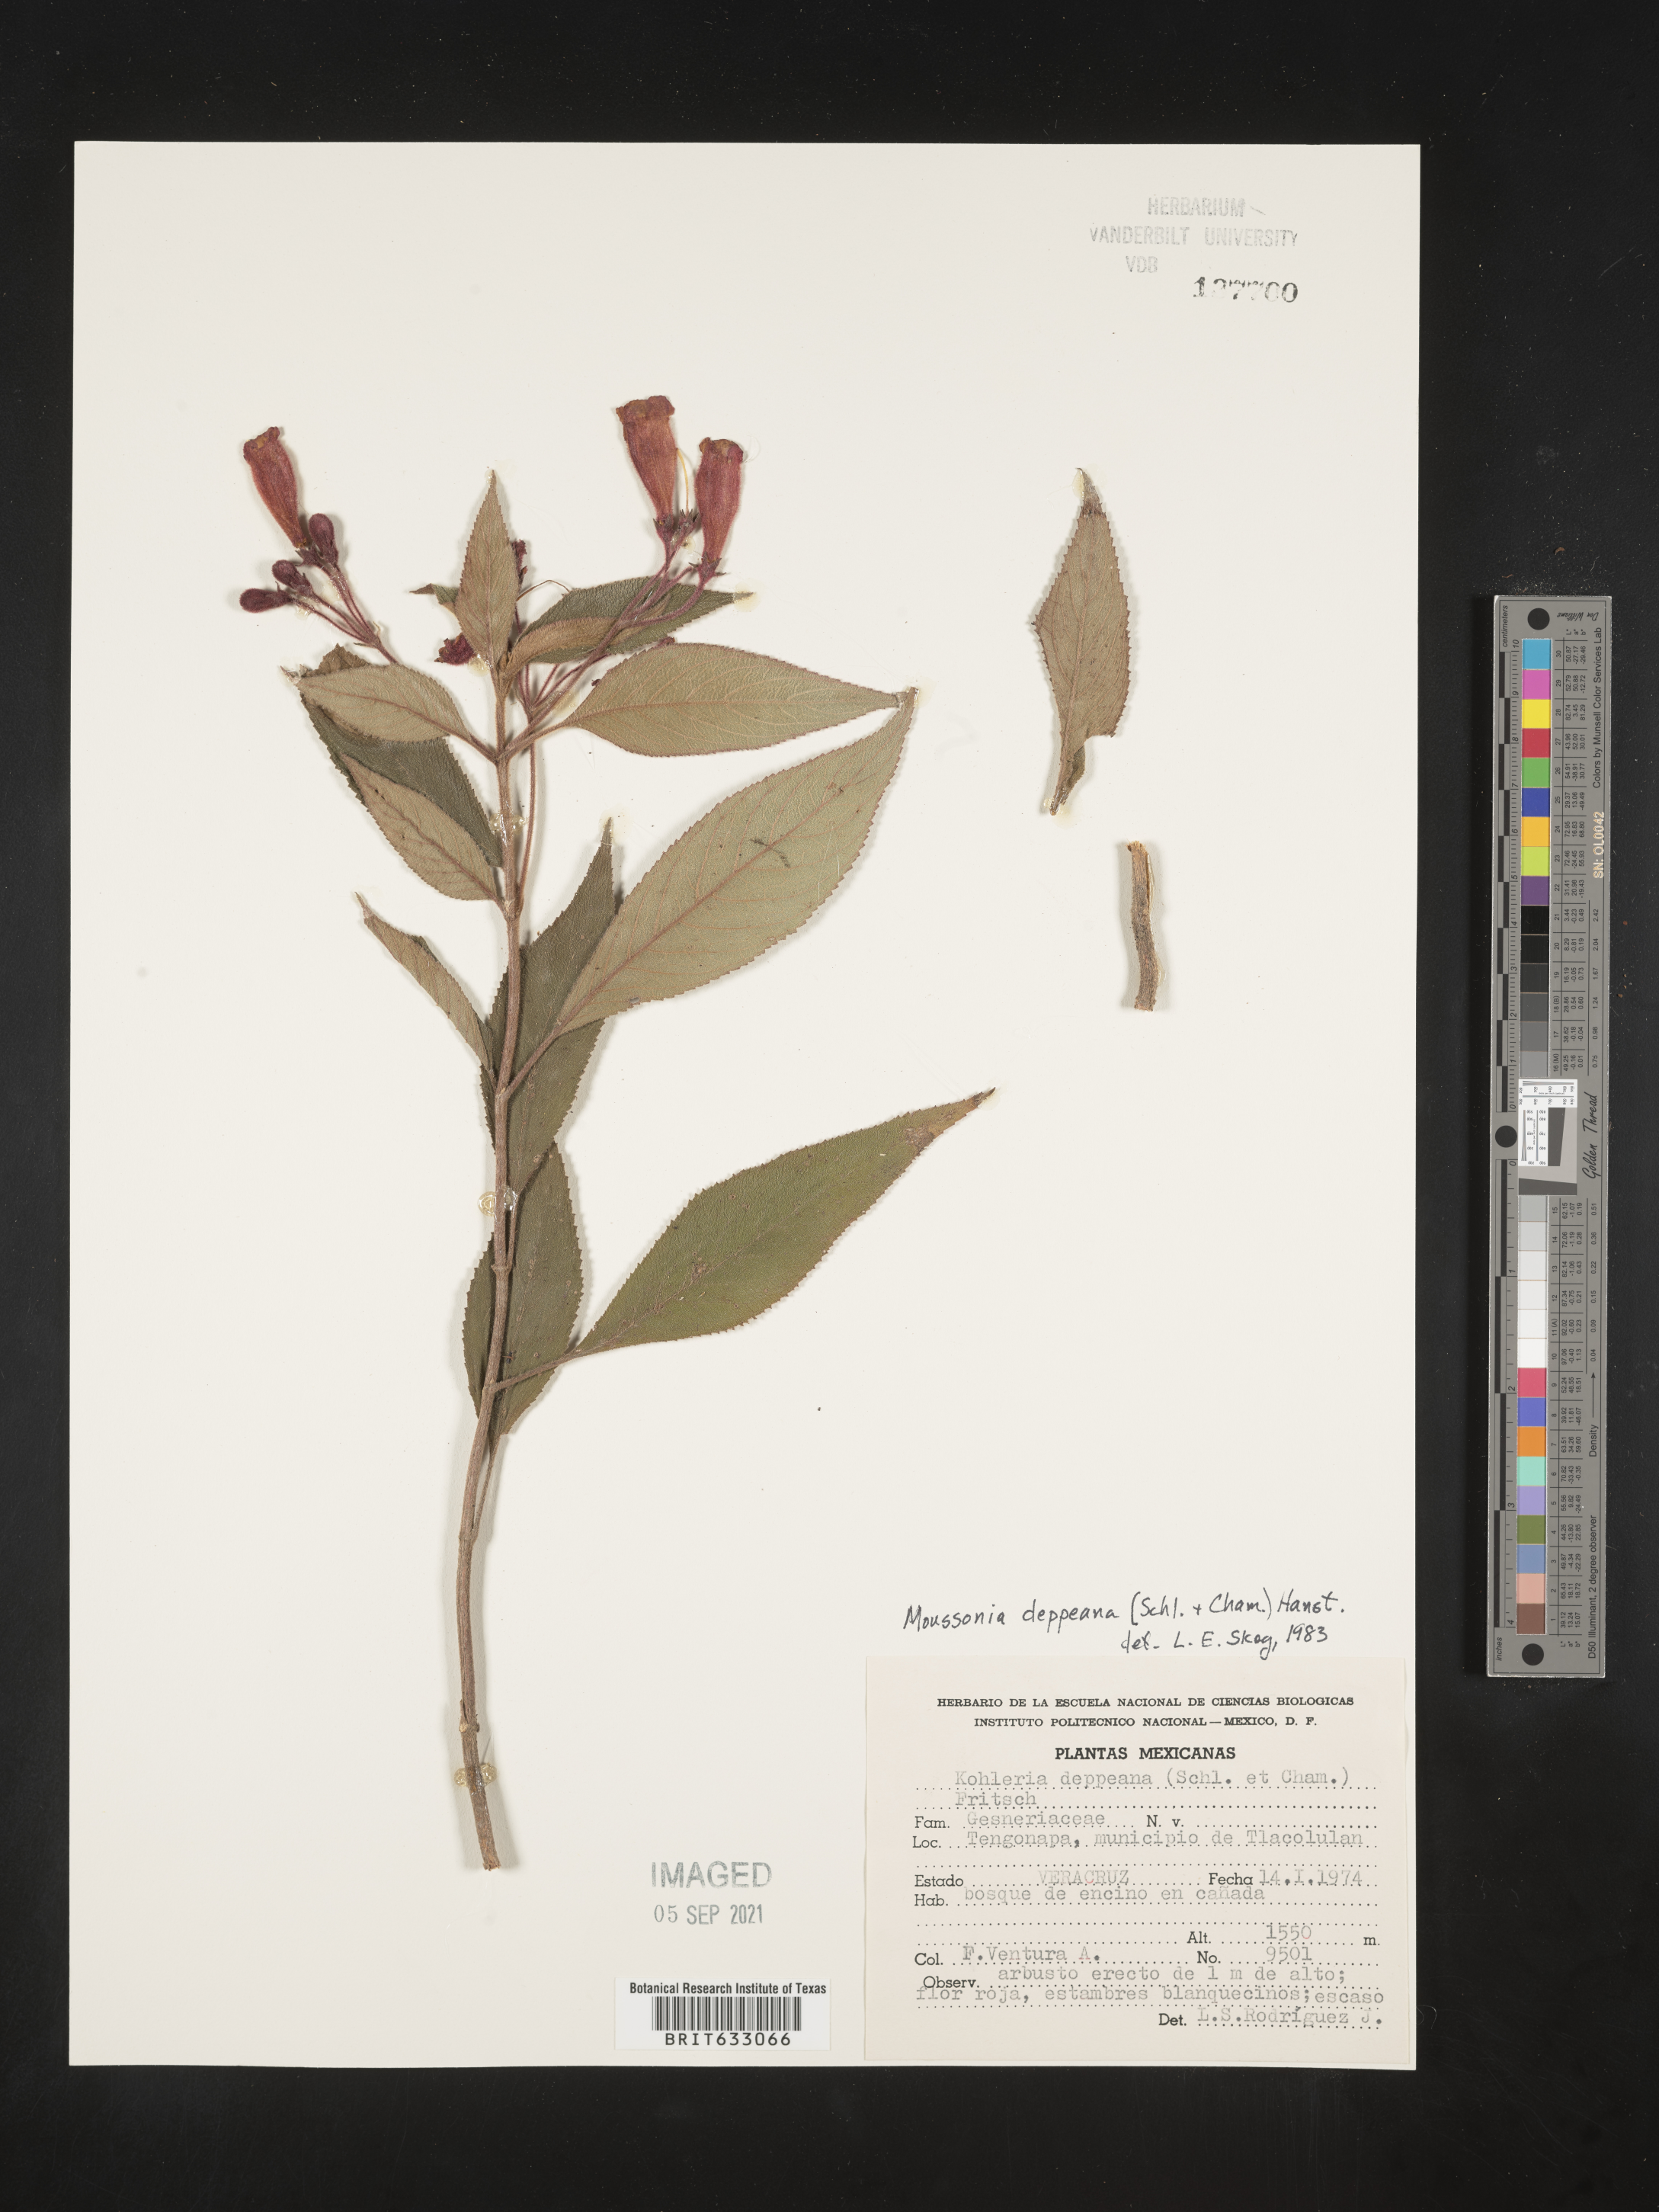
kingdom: Plantae
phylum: Tracheophyta
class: Magnoliopsida
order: Lamiales
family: Gesneriaceae
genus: Moussonia
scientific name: Moussonia deppeana
